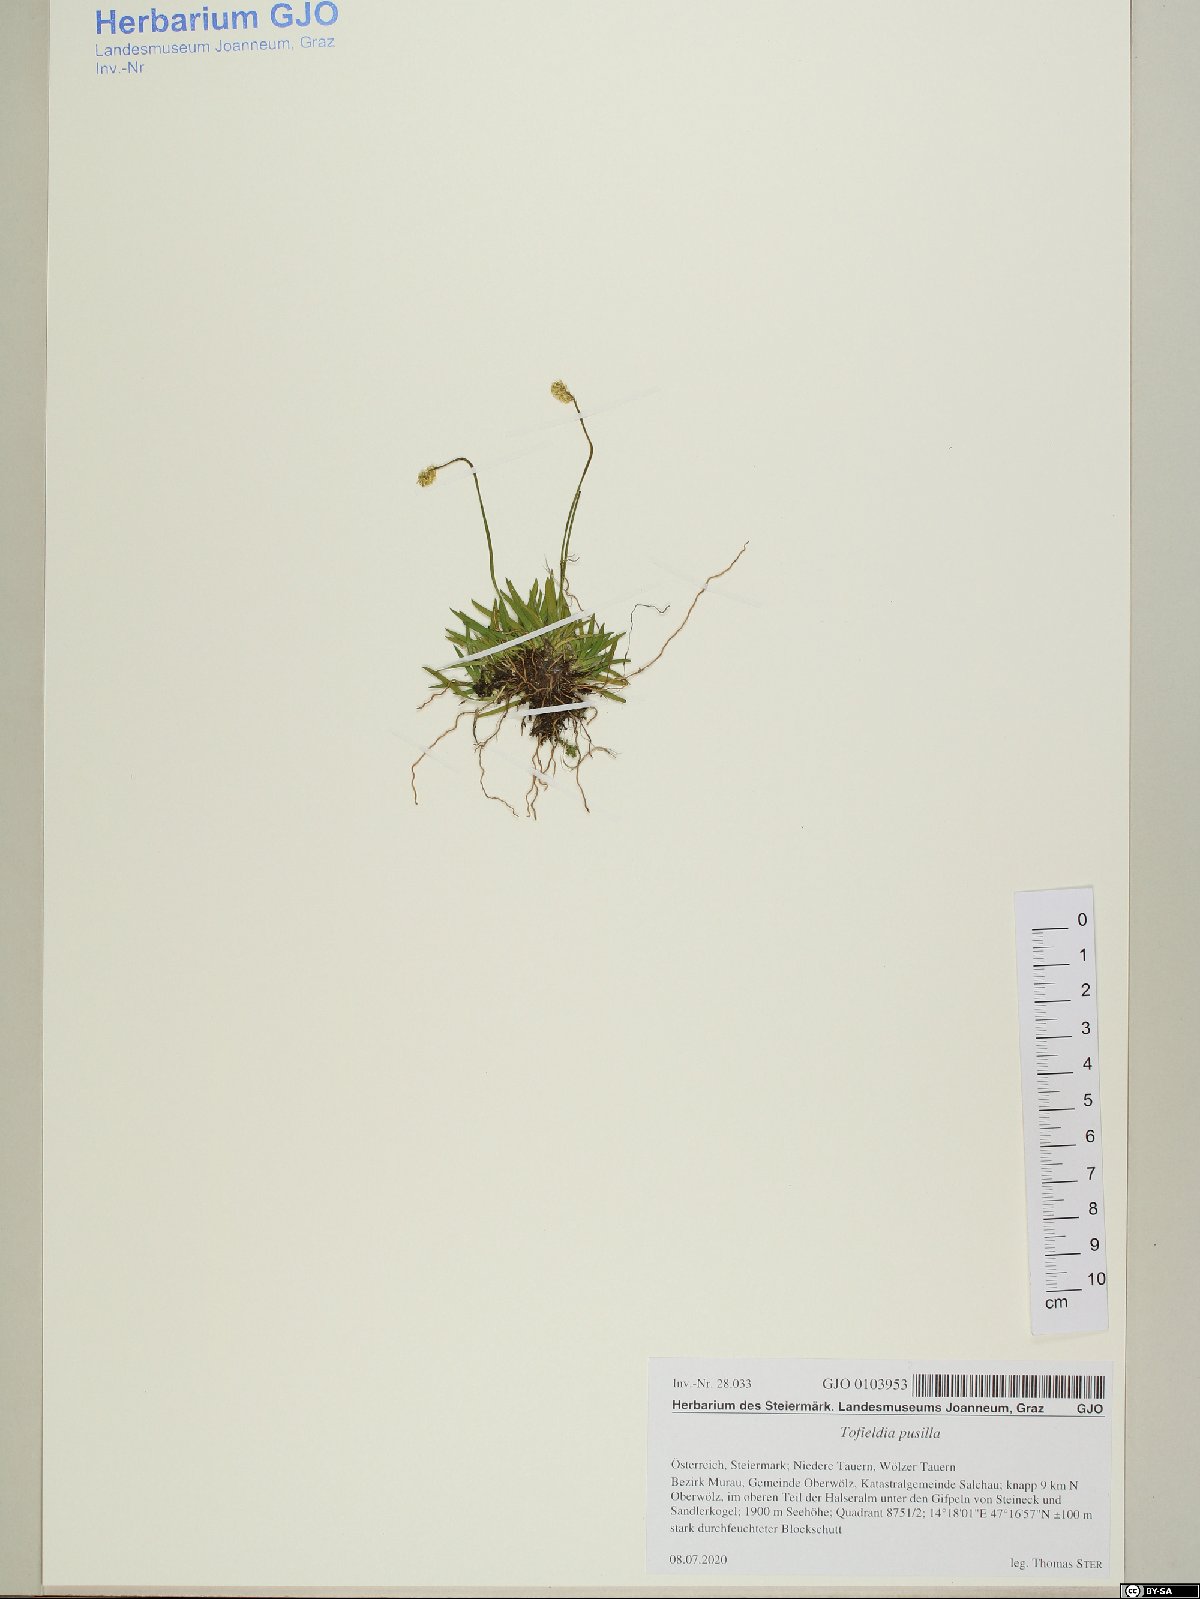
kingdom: Plantae
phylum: Tracheophyta
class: Liliopsida
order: Alismatales
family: Tofieldiaceae
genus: Tofieldia
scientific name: Tofieldia pusilla
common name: Scottish false asphodel
